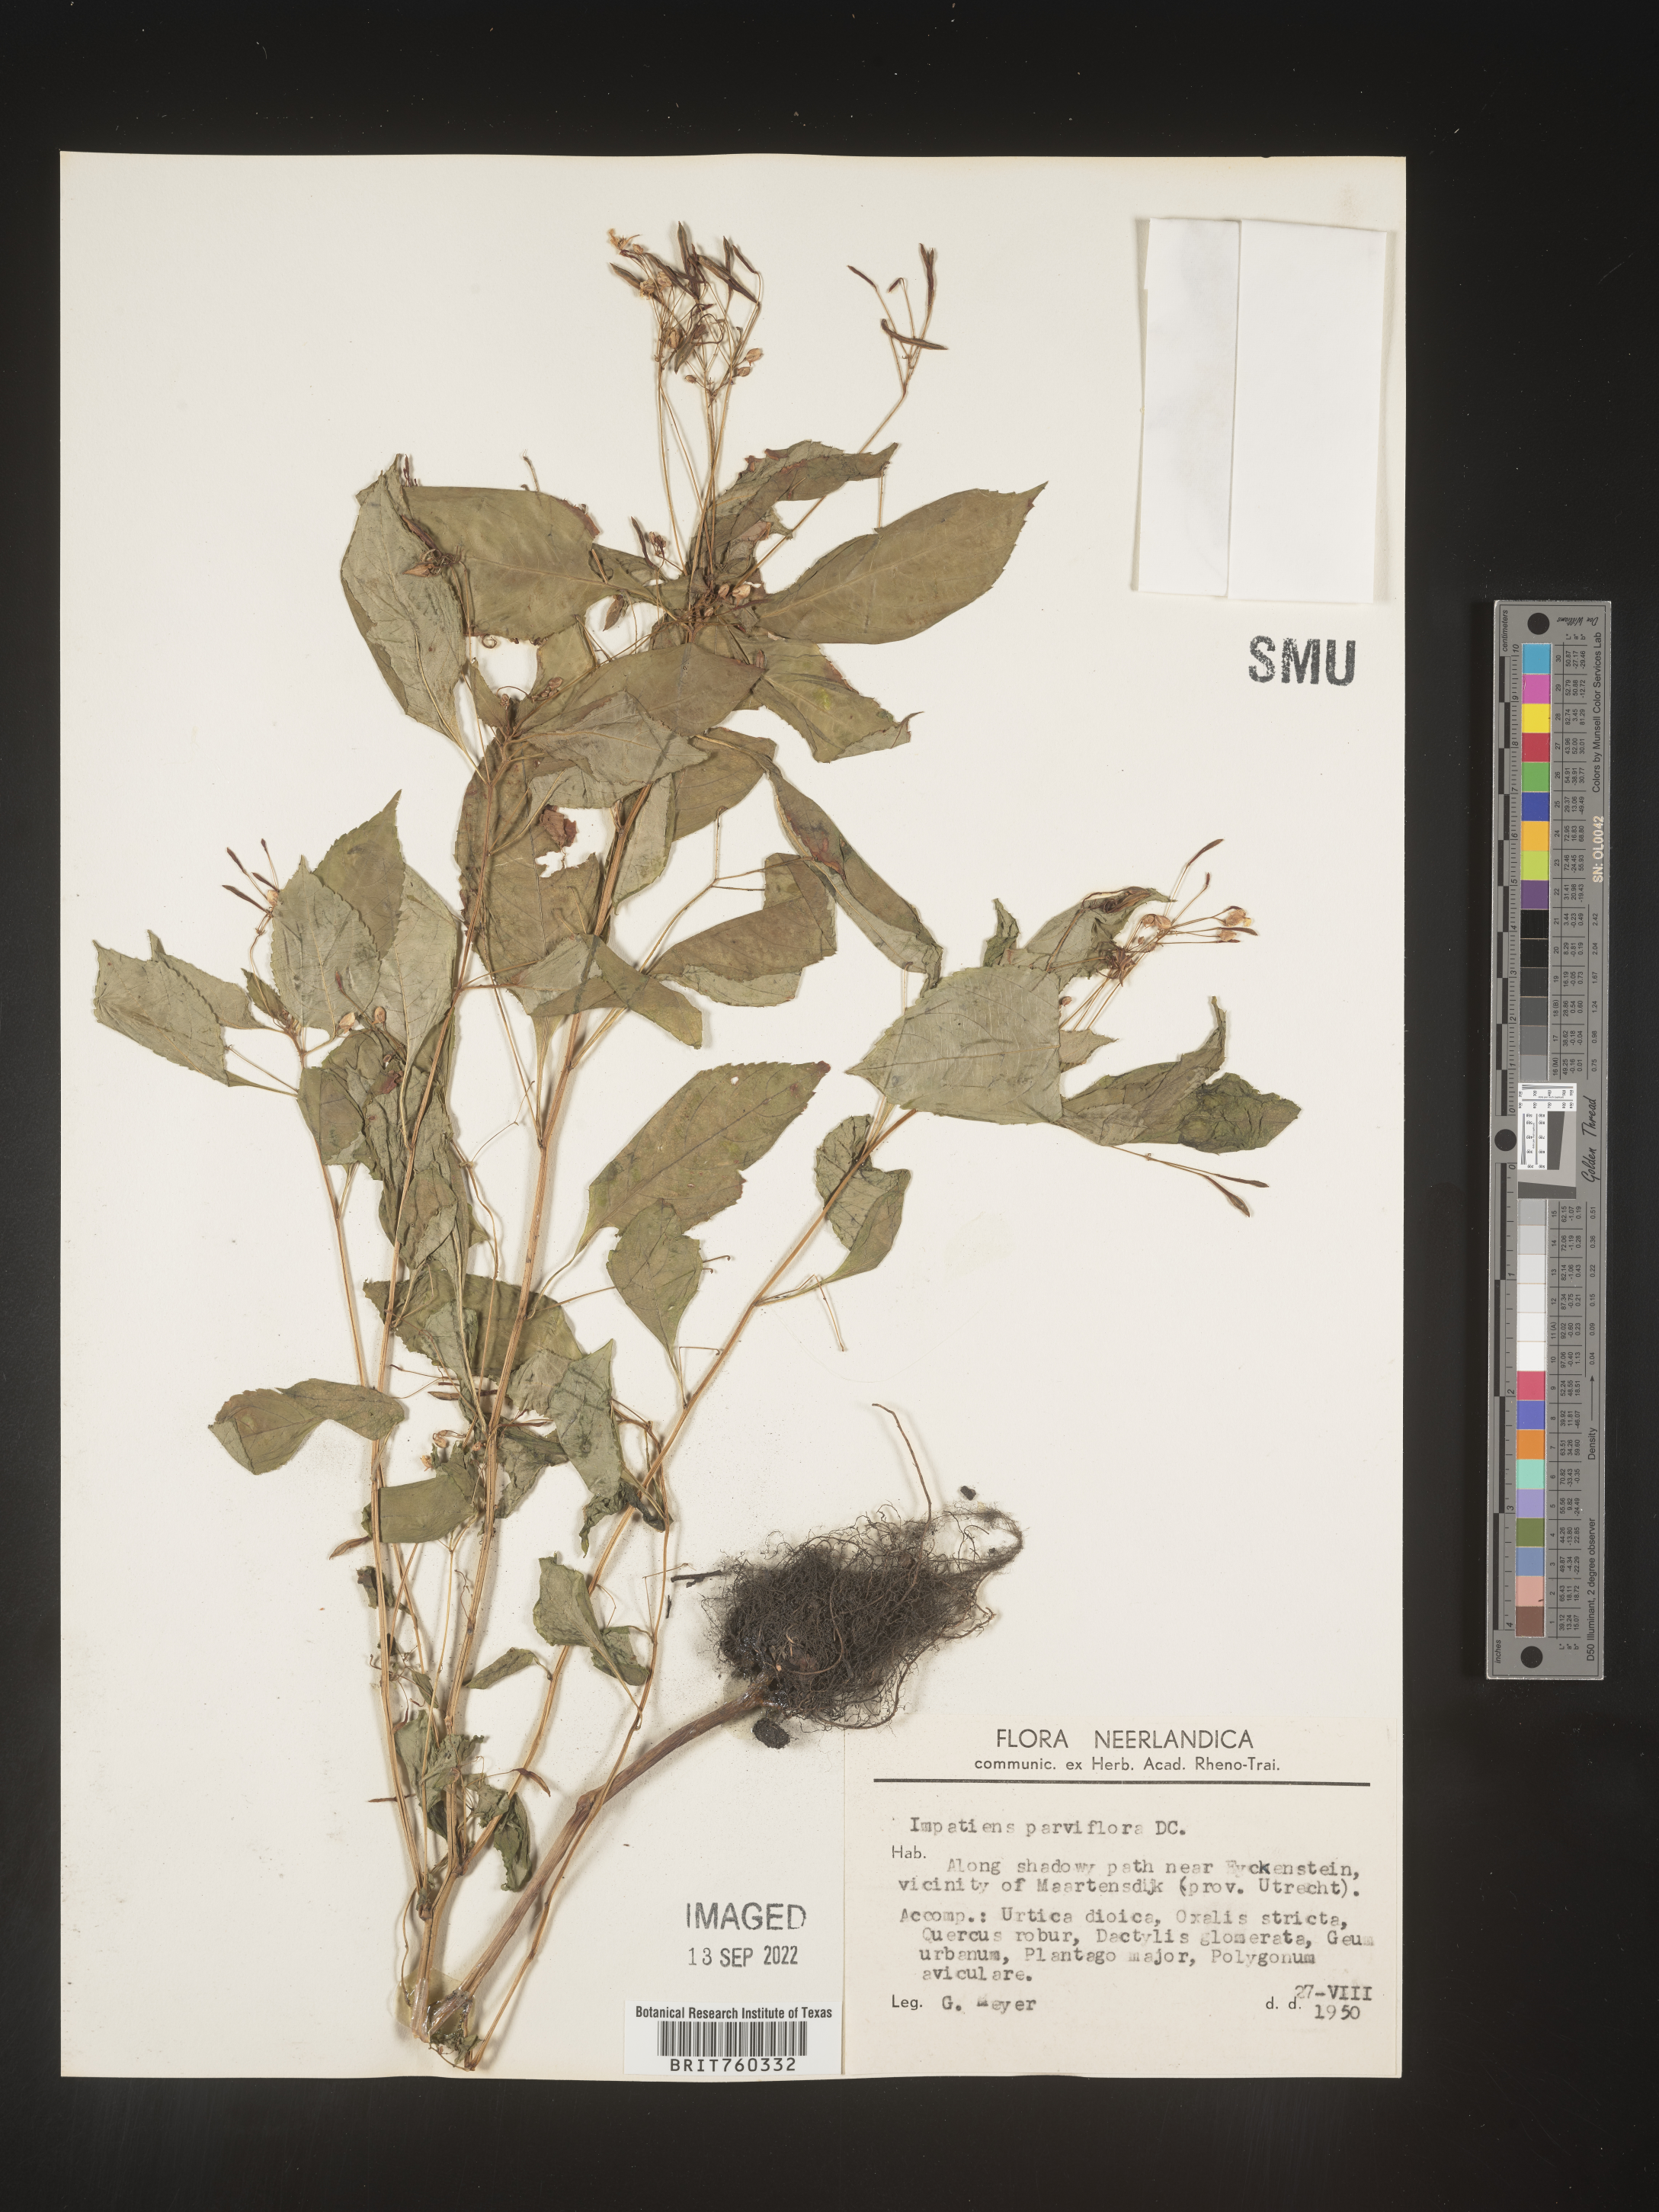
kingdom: Plantae
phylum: Tracheophyta
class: Magnoliopsida
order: Ericales
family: Balsaminaceae
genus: Impatiens
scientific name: Impatiens
